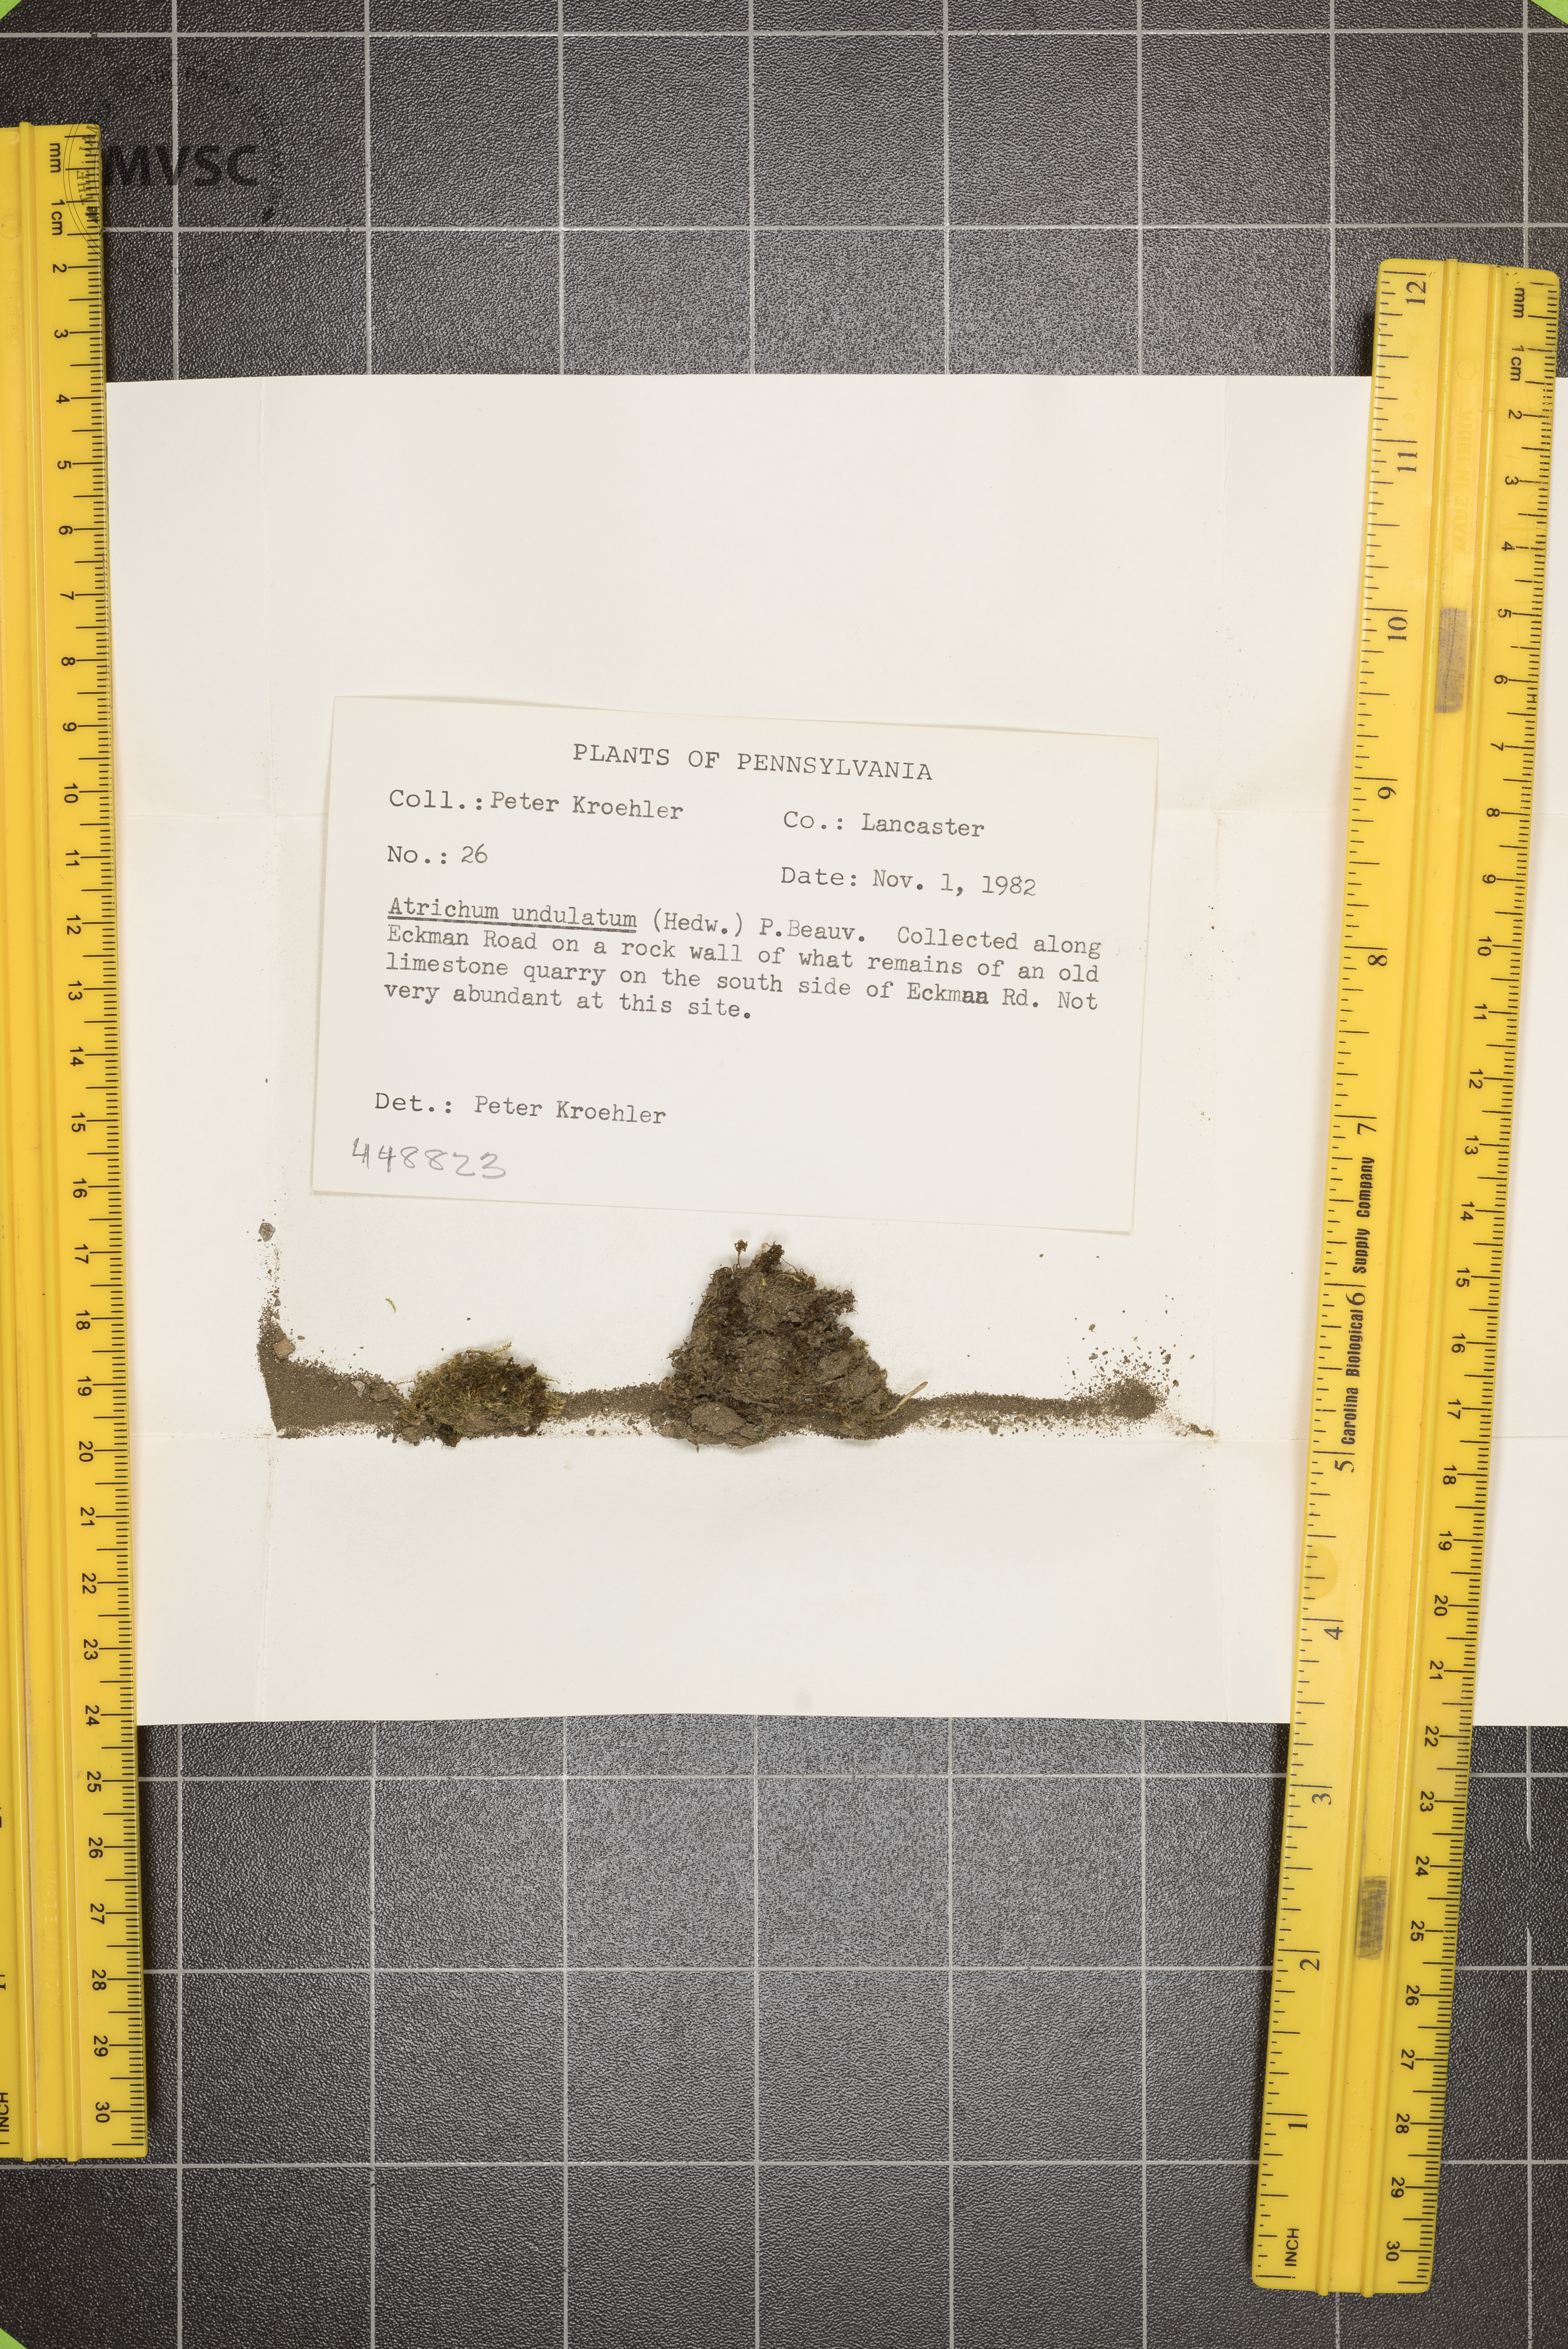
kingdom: Plantae
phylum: Bryophyta
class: Polytrichopsida
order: Polytrichales
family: Polytrichaceae
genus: Atrichum
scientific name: Atrichum undulatum
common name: Common smoothcap
